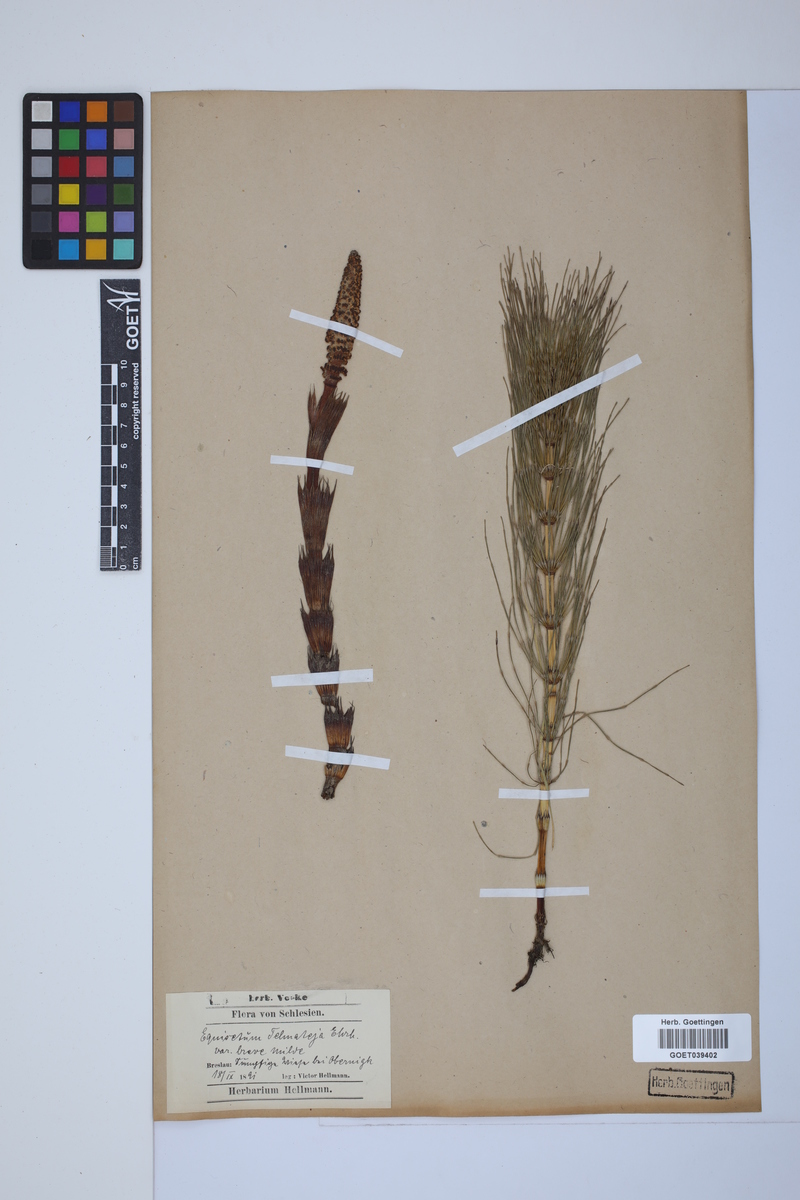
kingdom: Plantae
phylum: Tracheophyta
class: Polypodiopsida
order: Equisetales
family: Equisetaceae
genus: Equisetum
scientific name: Equisetum telmateia
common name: Great horsetail
